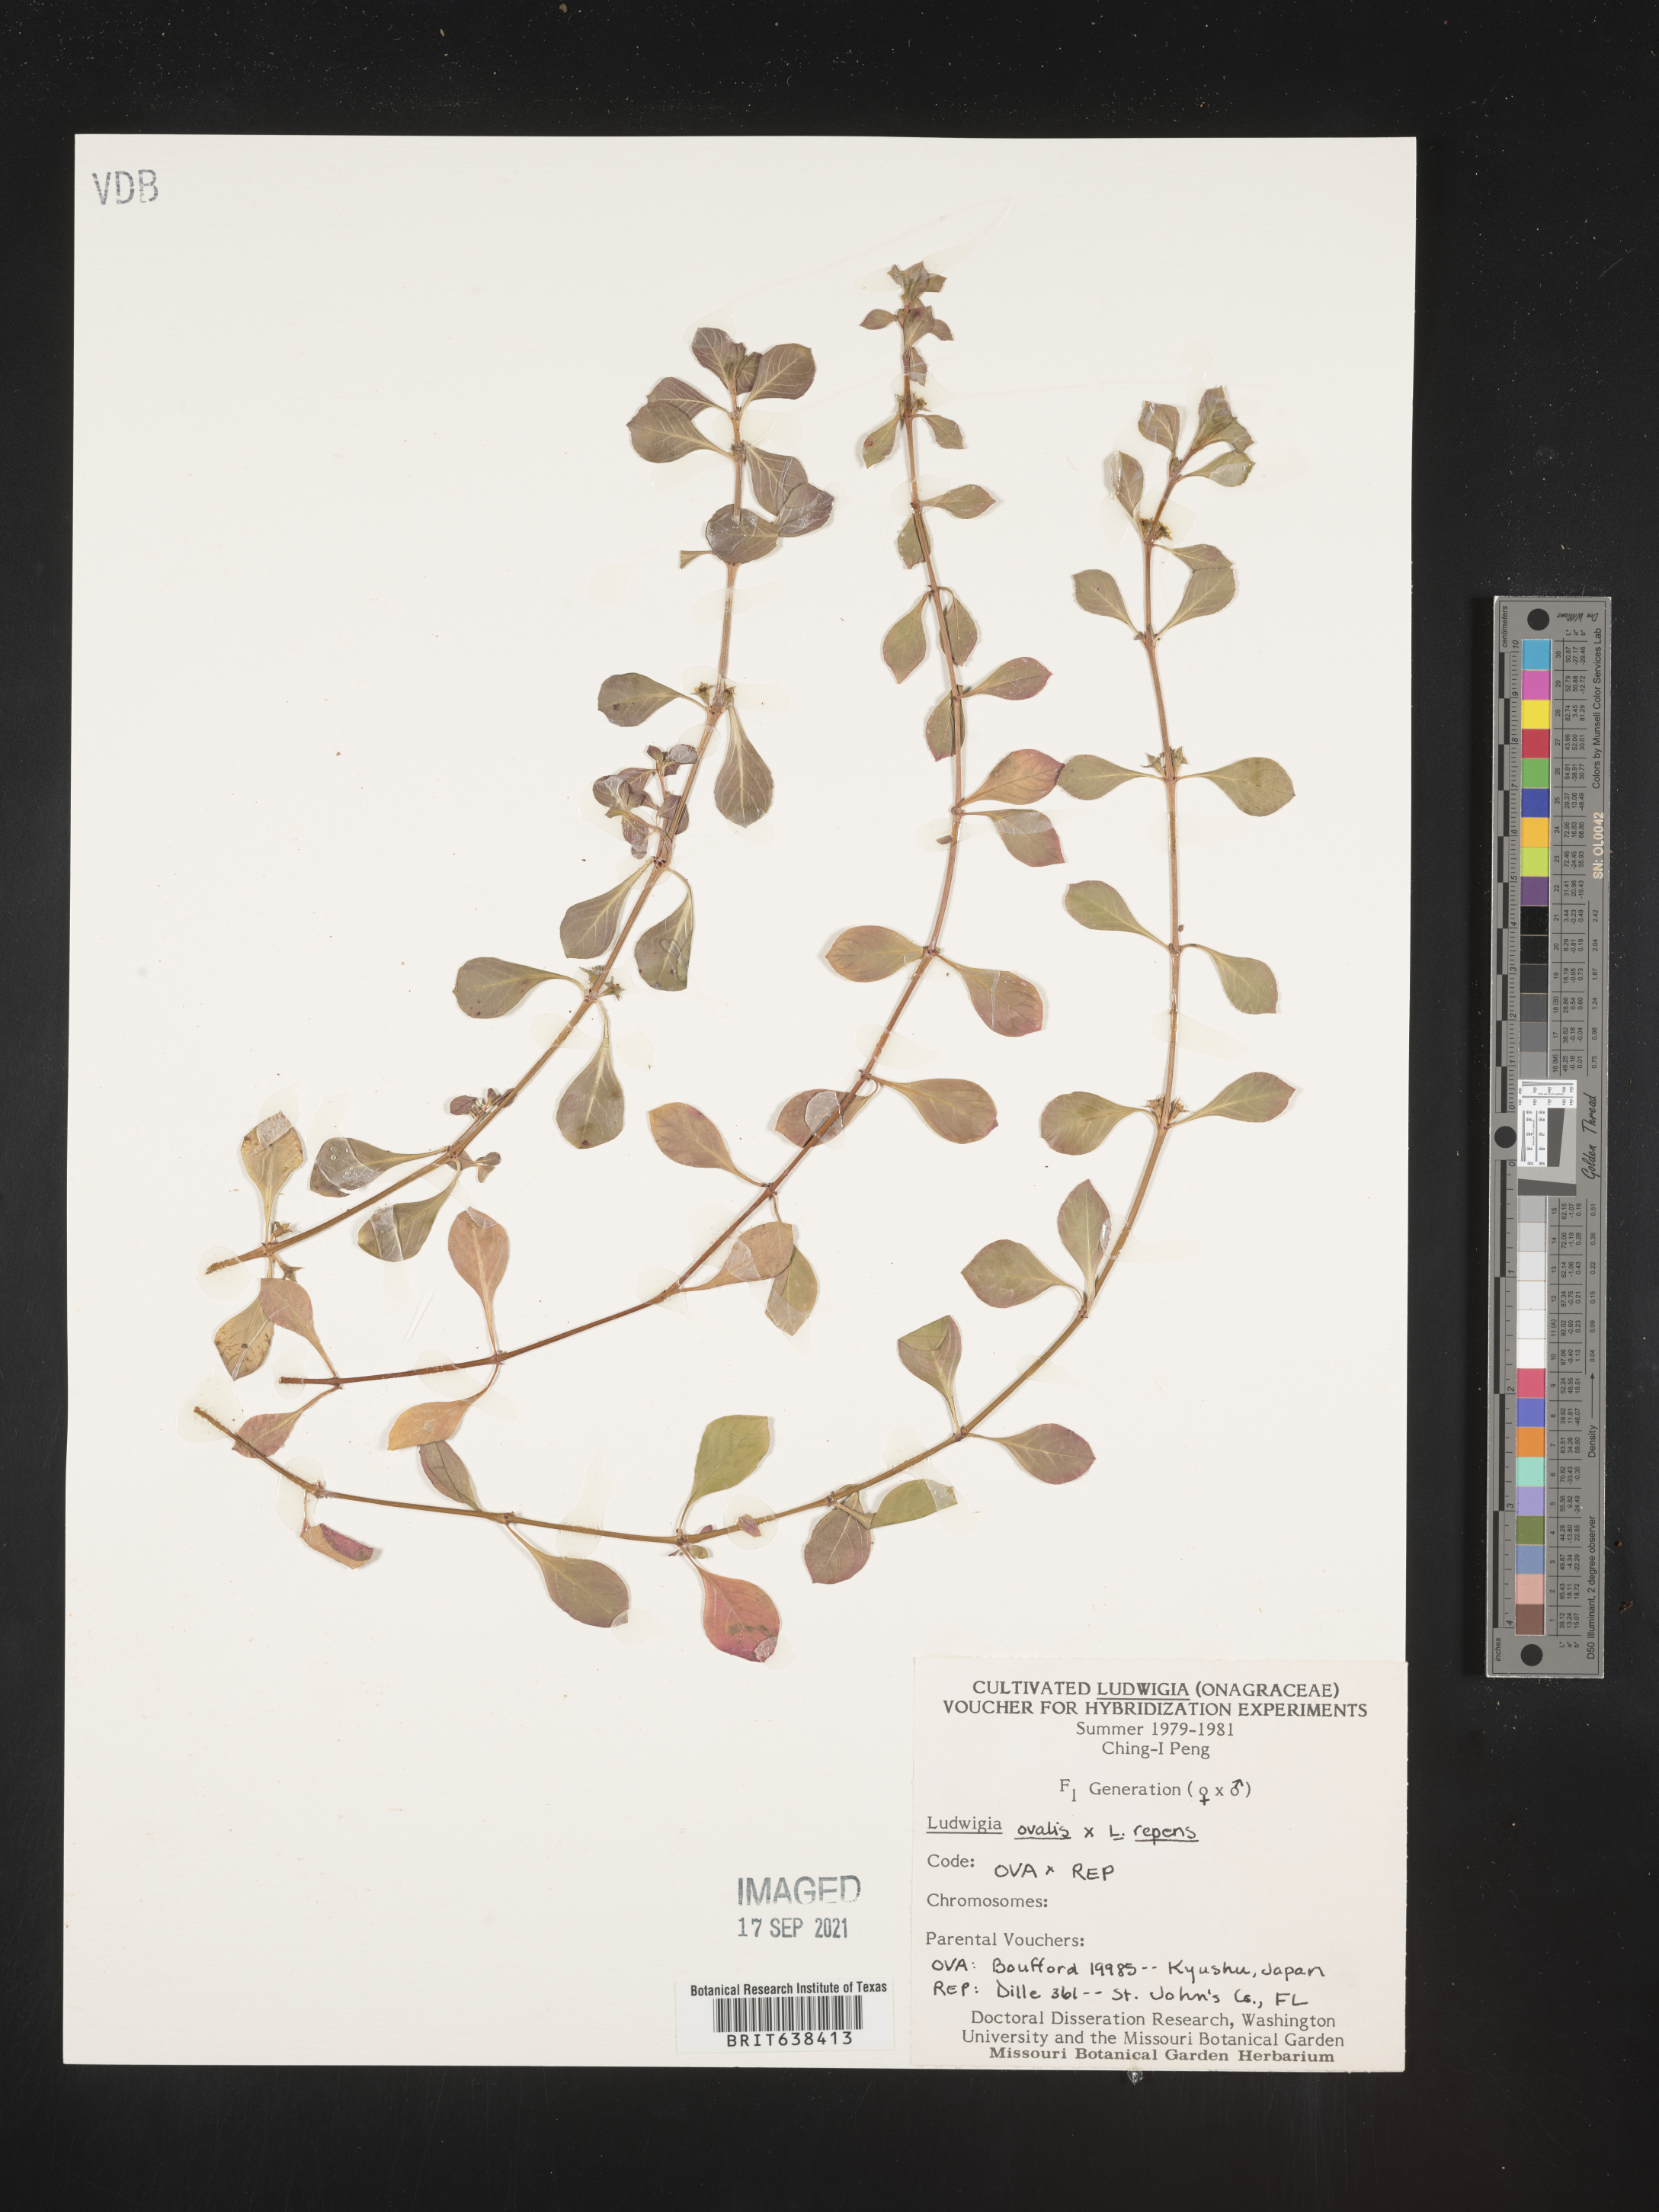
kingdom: Plantae
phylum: Tracheophyta
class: Magnoliopsida
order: Myrtales
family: Onagraceae
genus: Ludwigia
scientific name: Ludwigia
